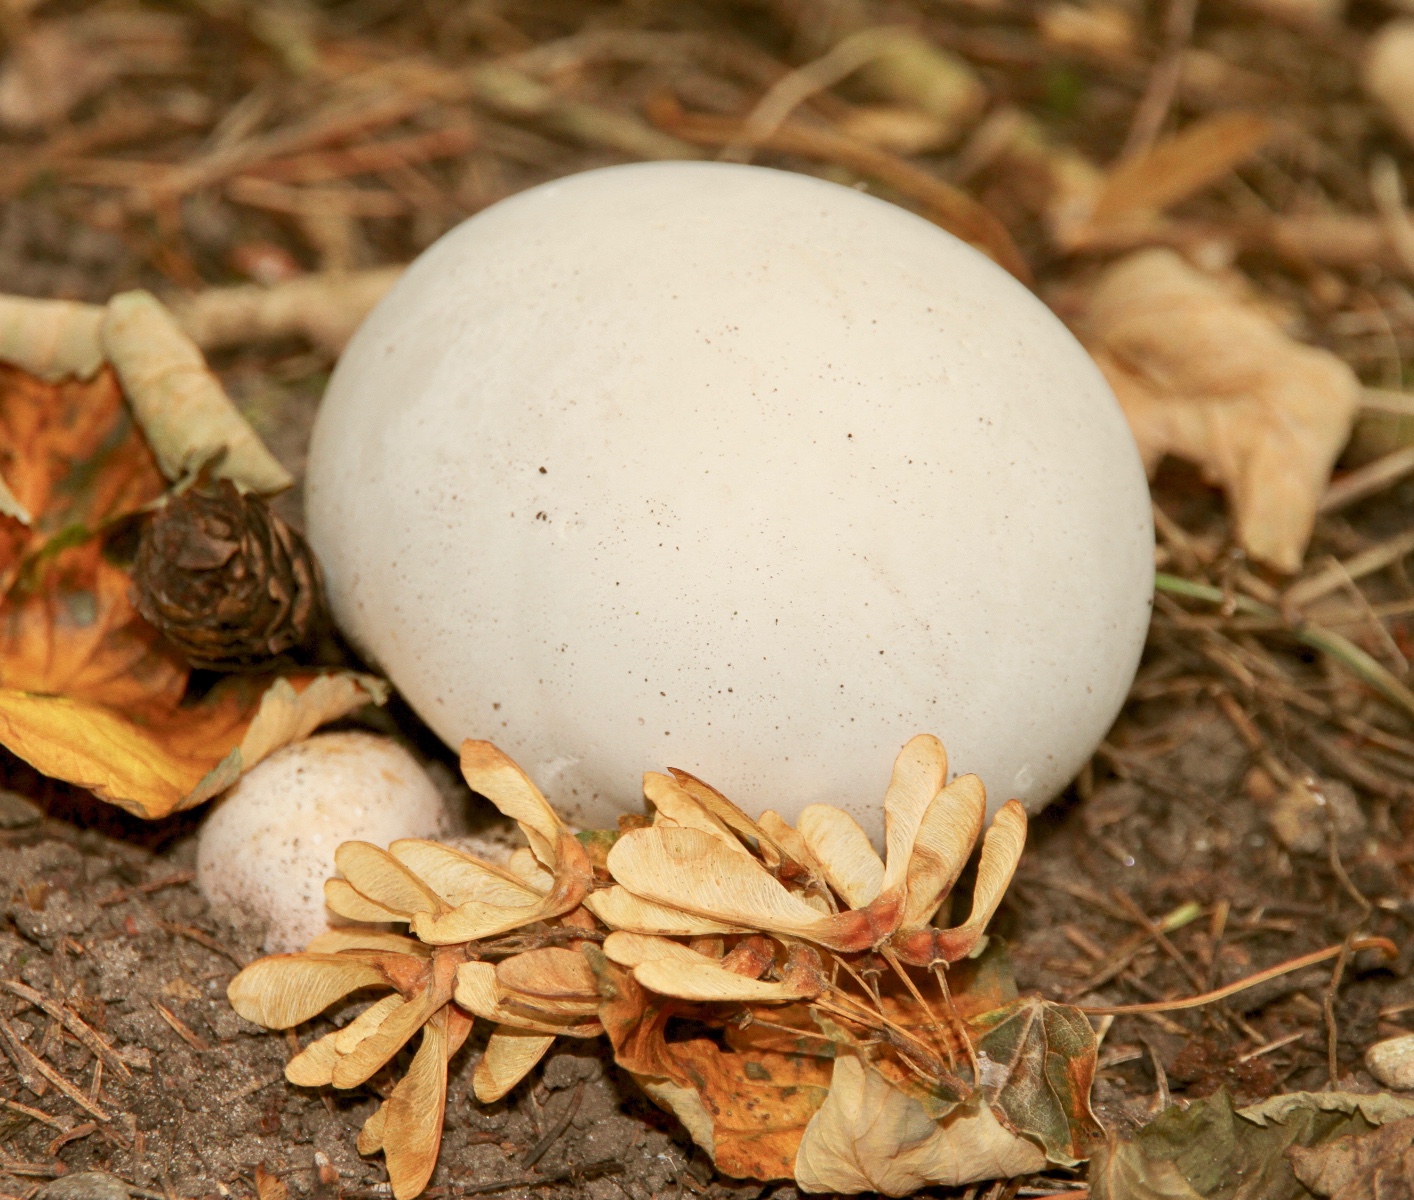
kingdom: Fungi
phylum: Basidiomycota
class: Agaricomycetes
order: Agaricales
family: Lycoperdaceae
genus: Calvatia
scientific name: Calvatia gigantea
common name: kæmpestøvbold
